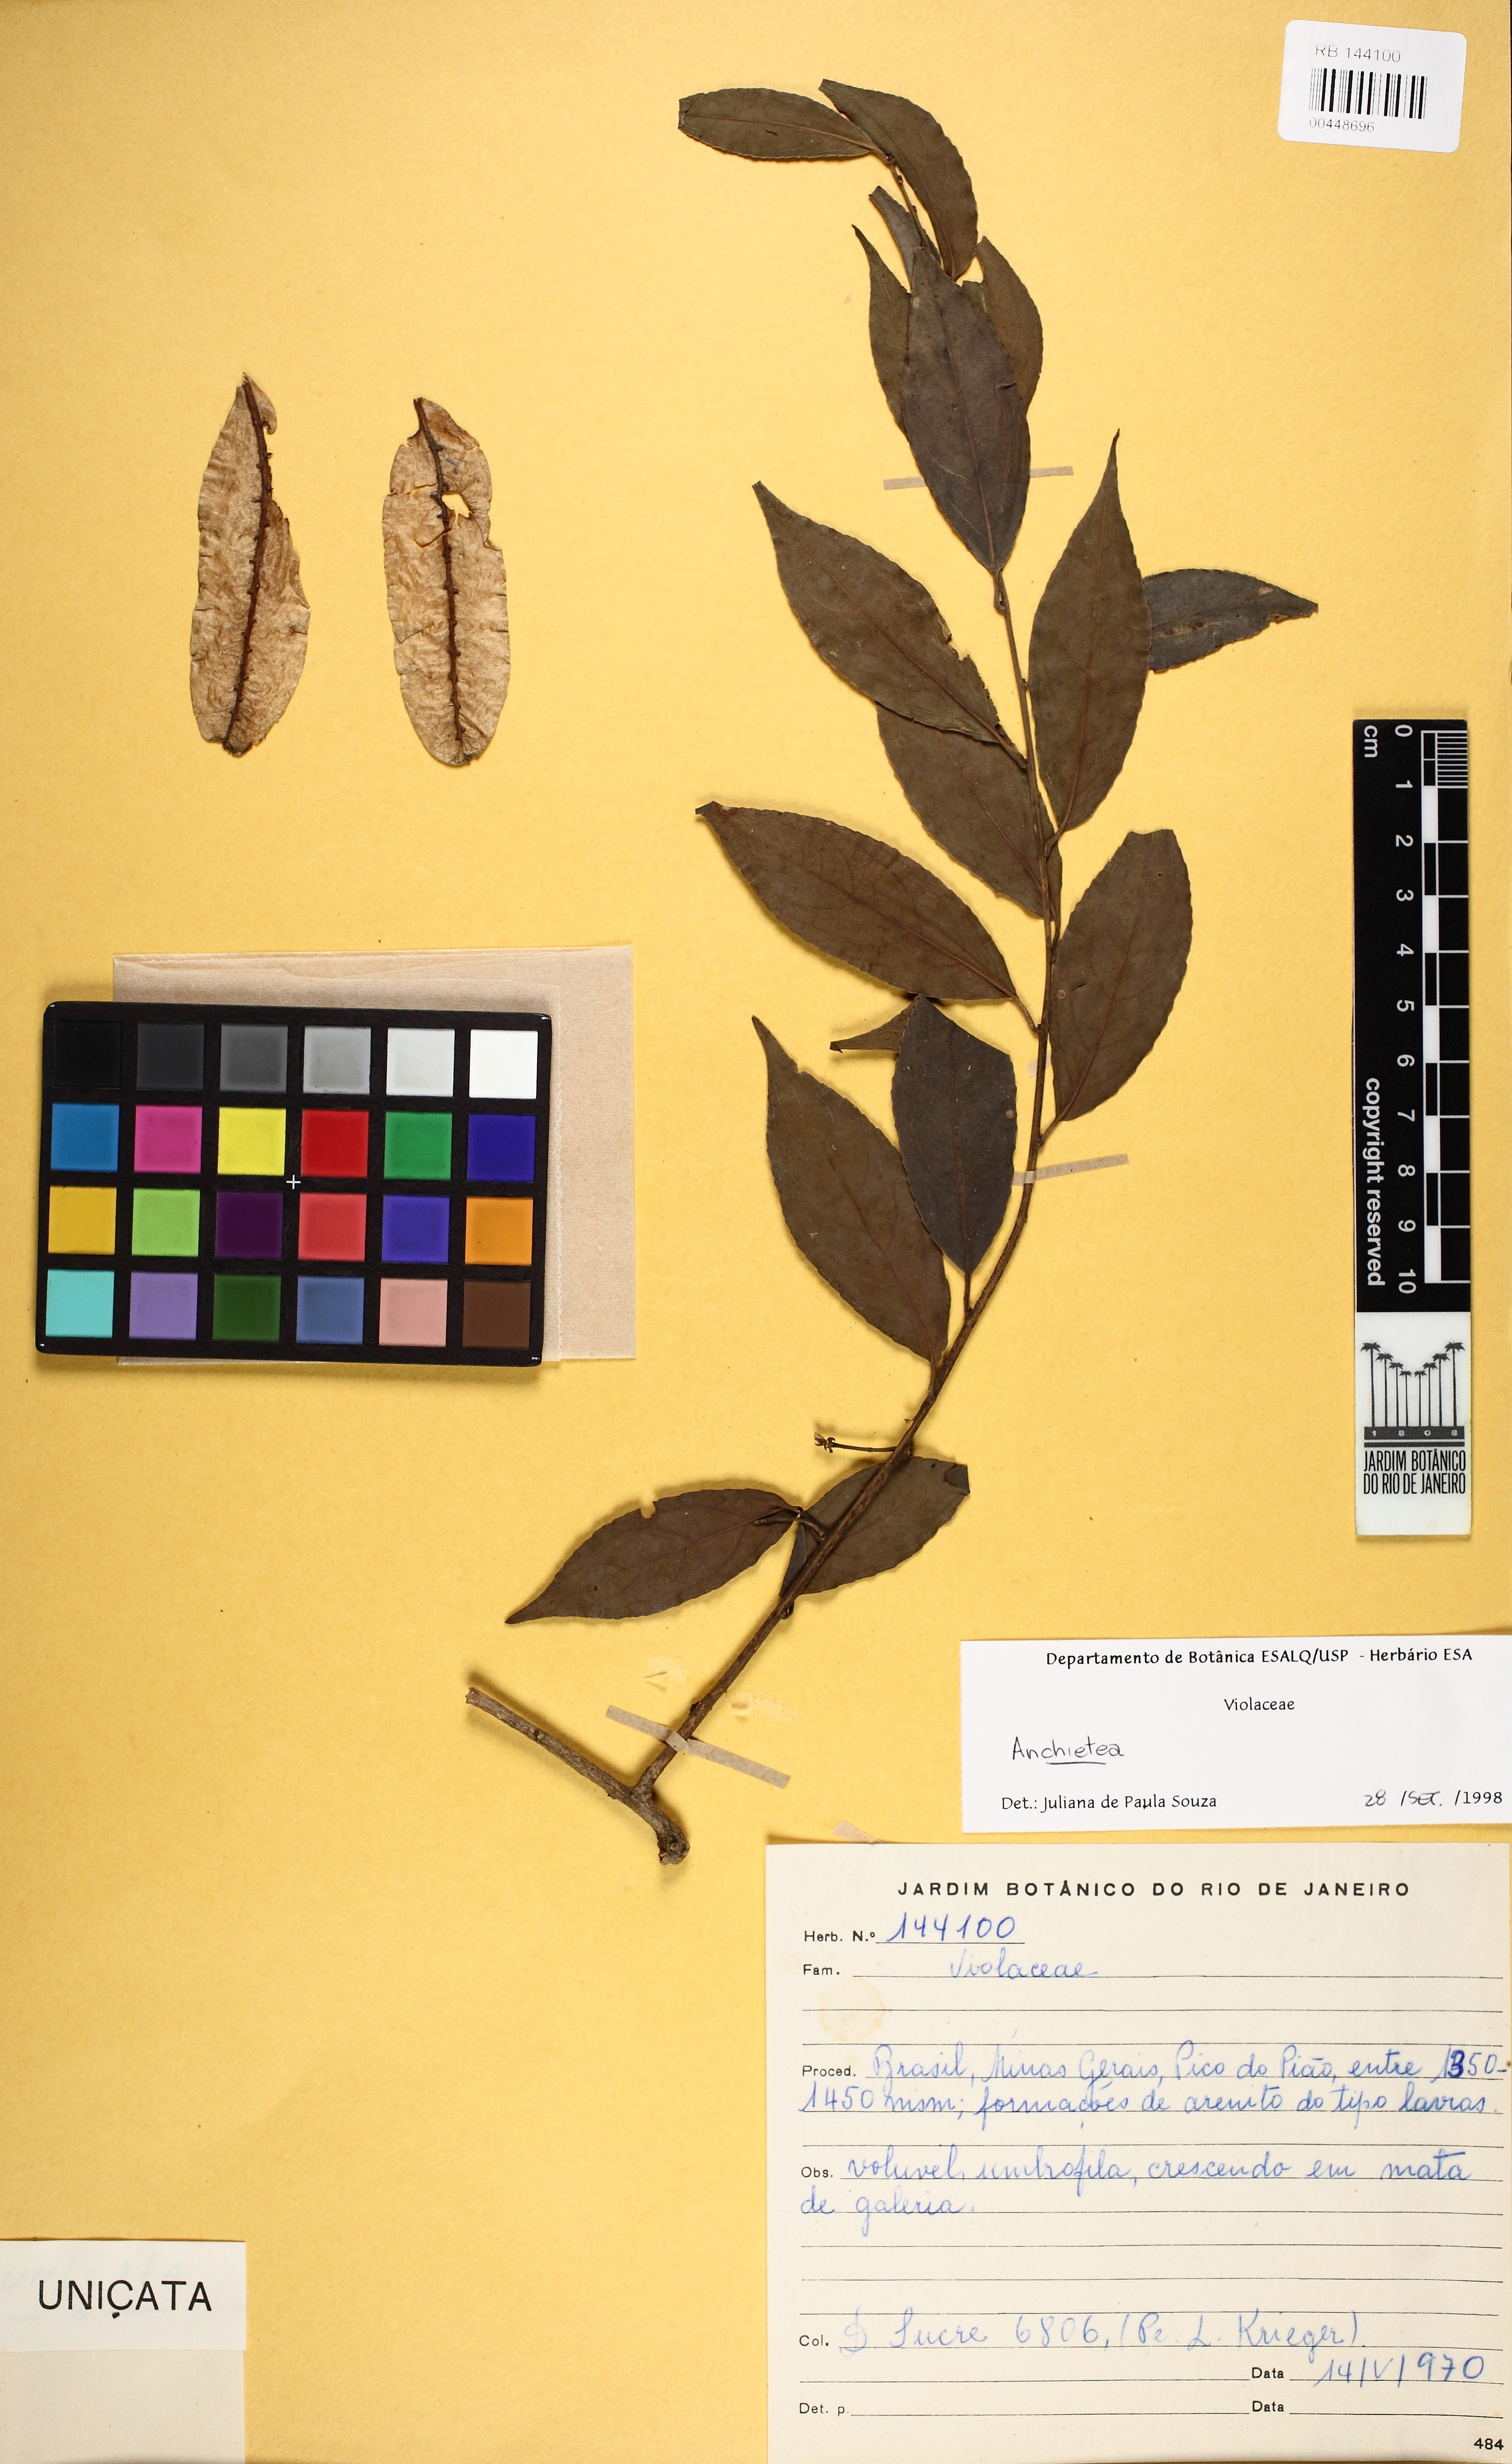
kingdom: Plantae
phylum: Tracheophyta
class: Magnoliopsida
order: Malpighiales
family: Violaceae
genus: Anchietea
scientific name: Anchietea
